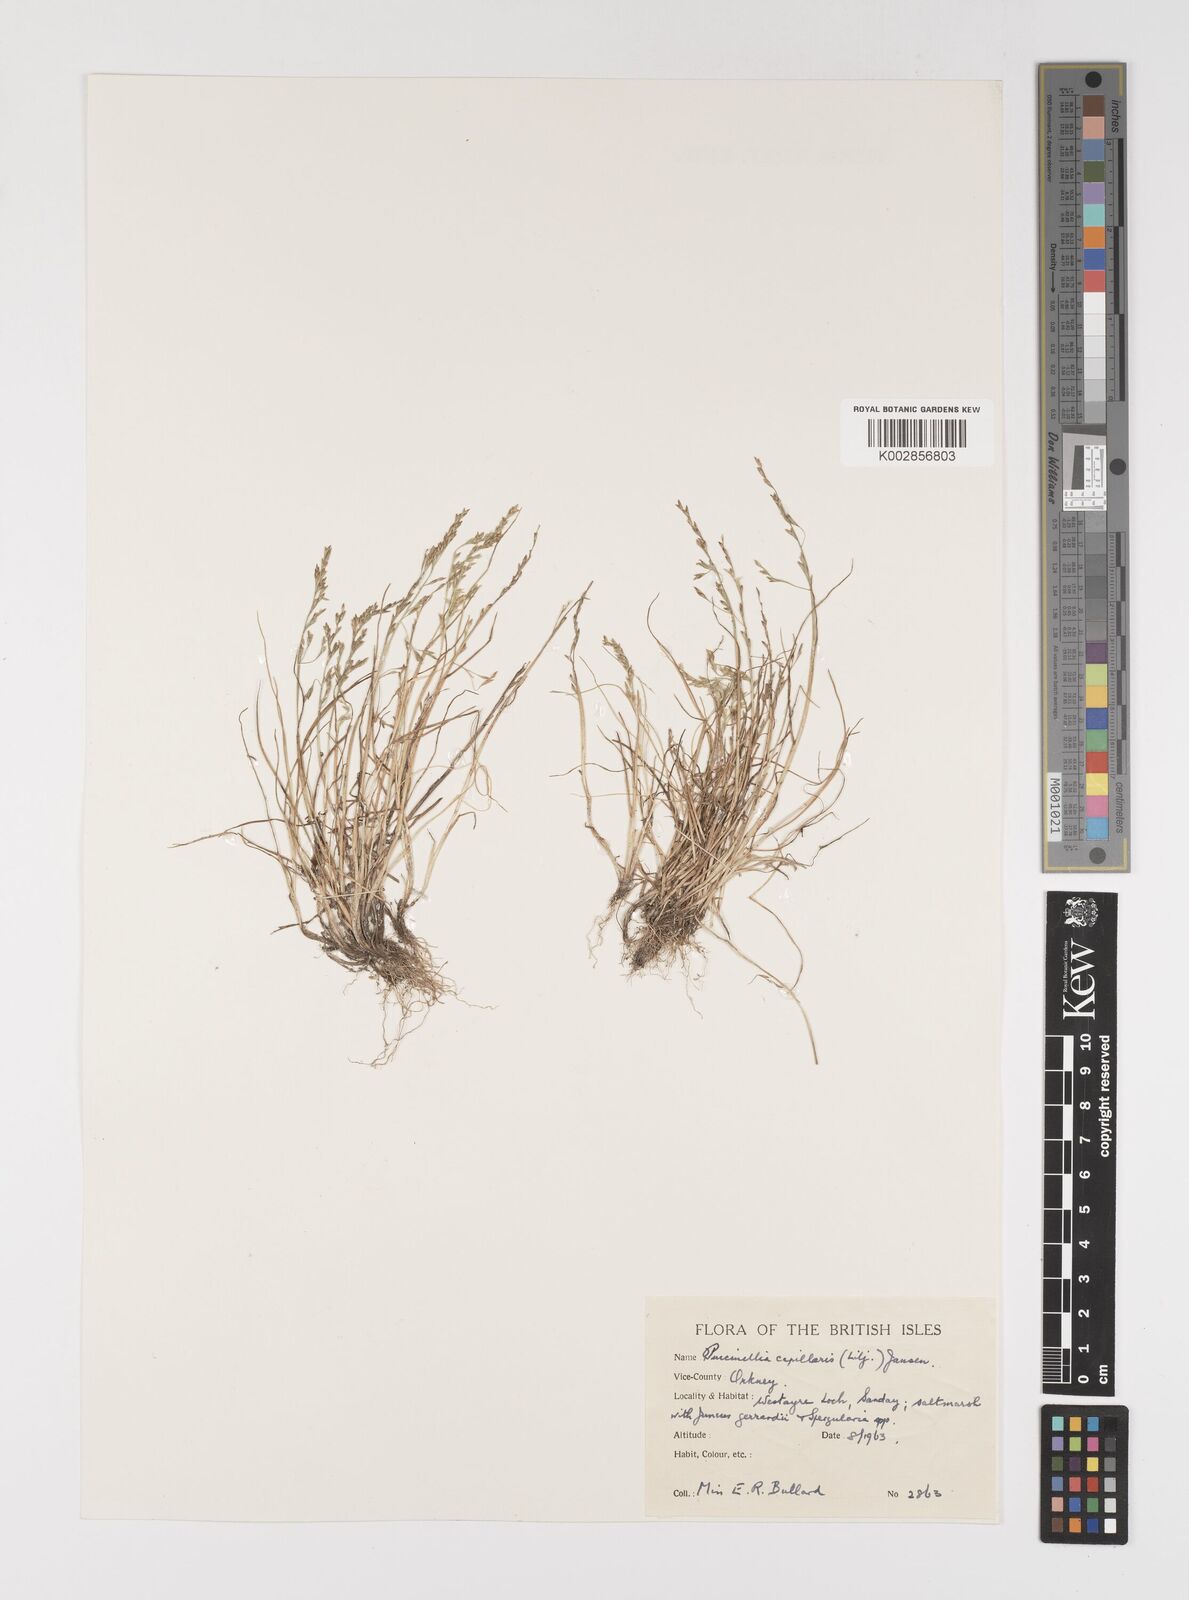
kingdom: Plantae
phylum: Tracheophyta
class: Liliopsida
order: Poales
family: Poaceae
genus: Puccinellia
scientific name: Puccinellia distans
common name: Weeping alkaligrass
